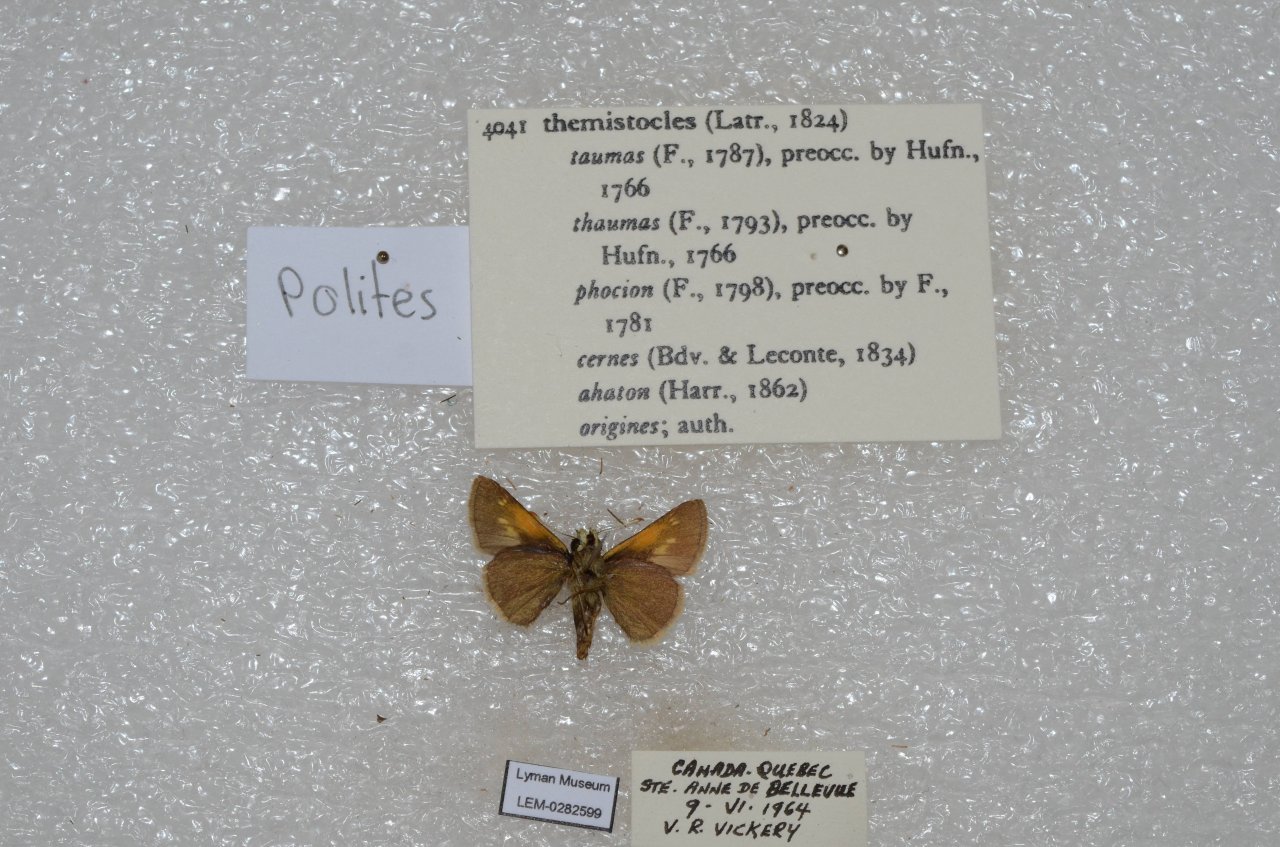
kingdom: Animalia
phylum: Arthropoda
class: Insecta
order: Lepidoptera
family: Hesperiidae
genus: Polites
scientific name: Polites themistocles
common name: Tawny-edged Skipper
